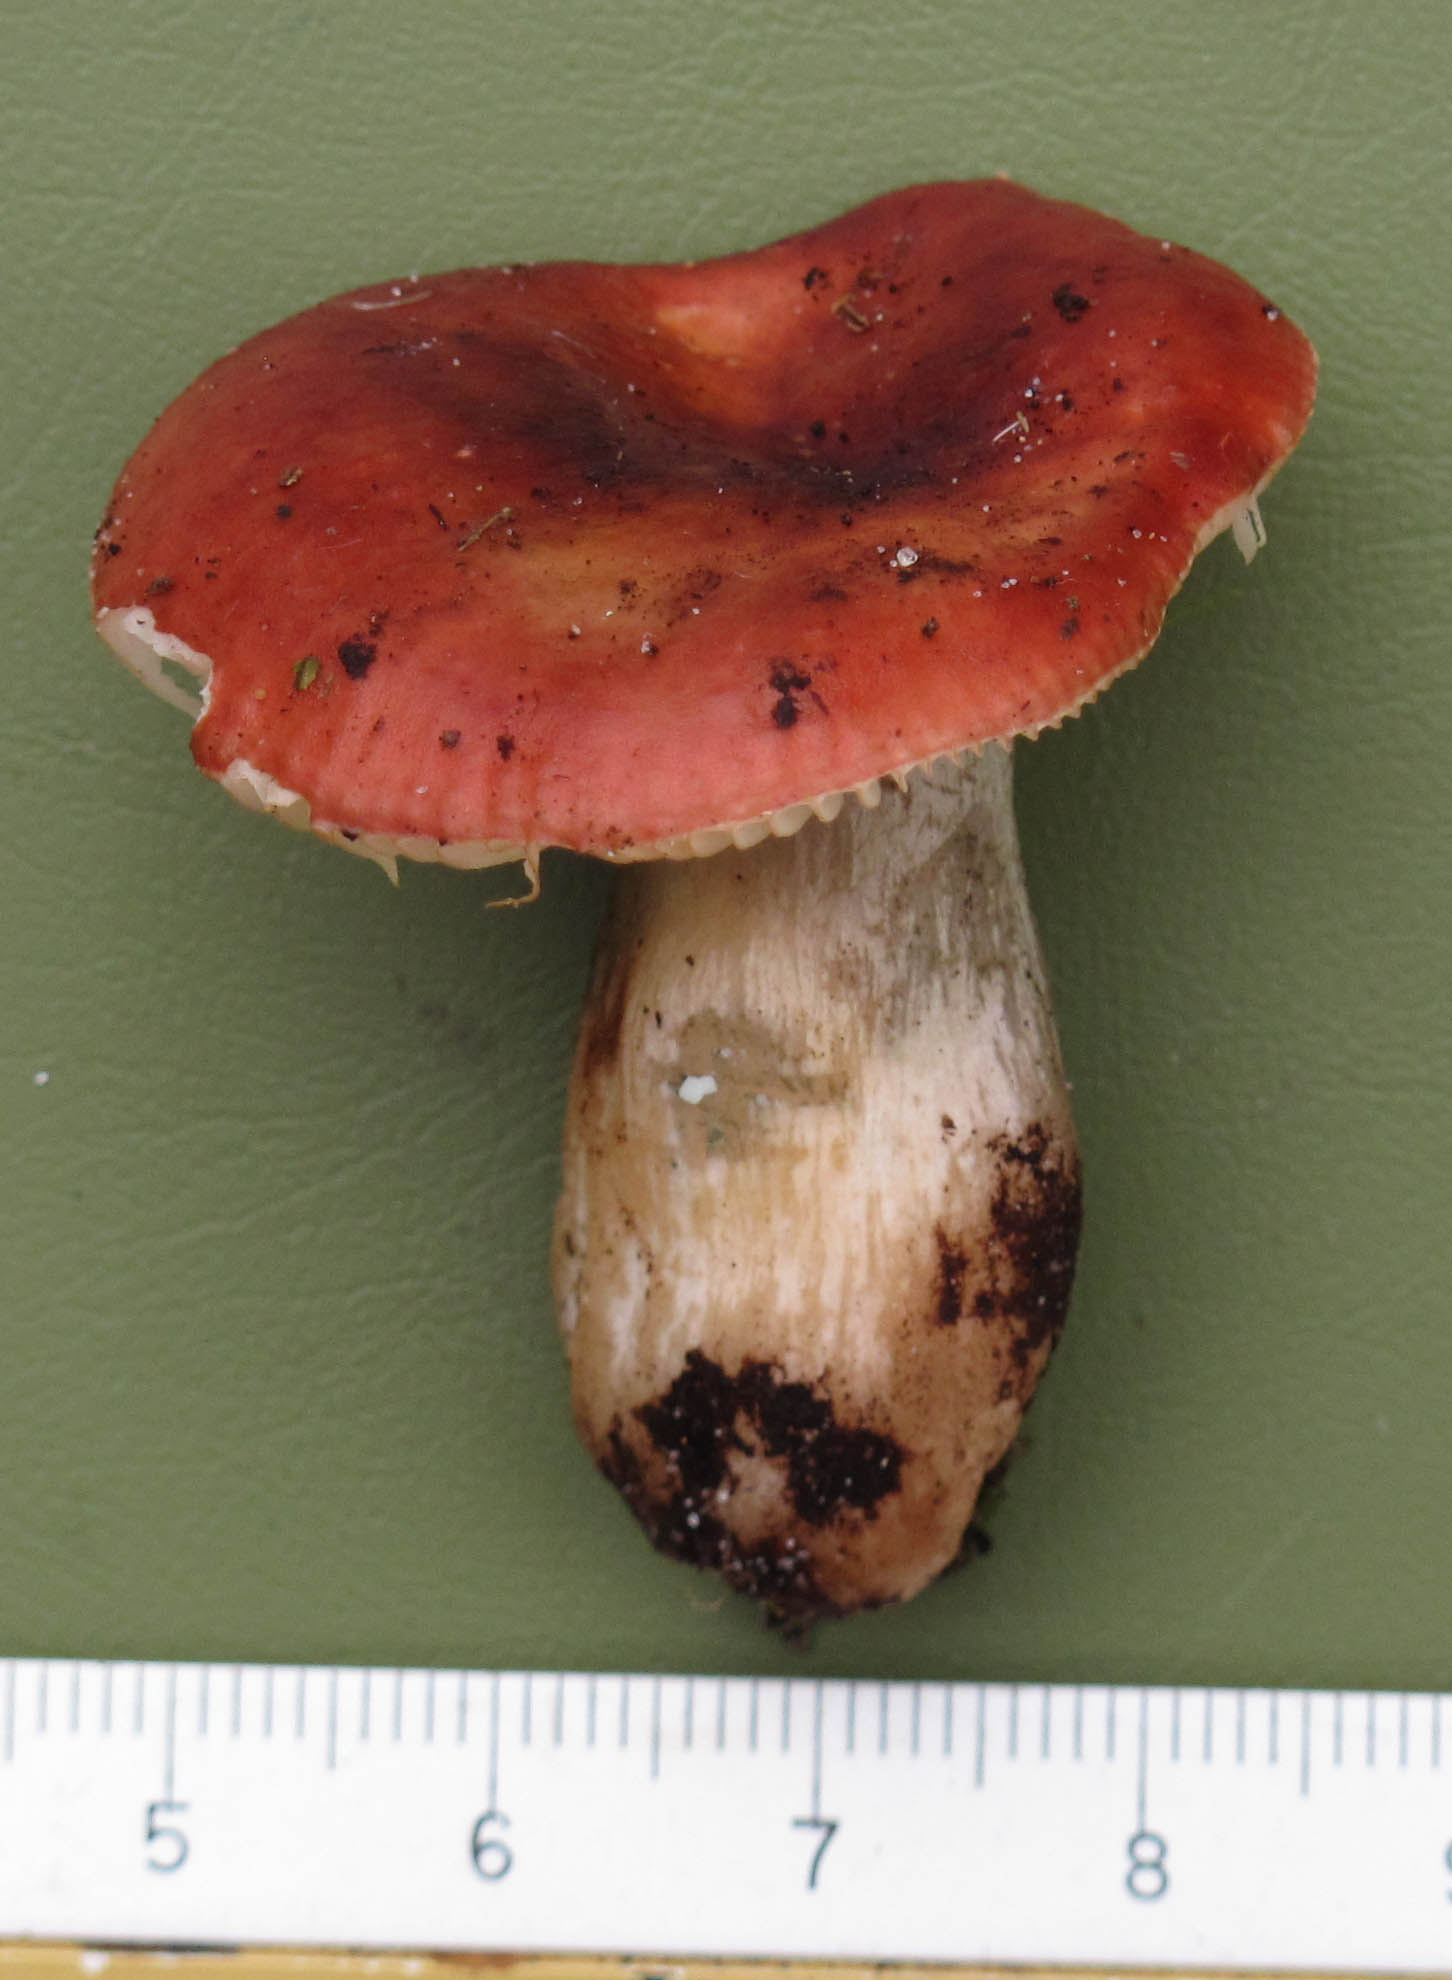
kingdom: Fungi
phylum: Basidiomycota
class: Agaricomycetes
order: Russulales
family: Russulaceae
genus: Russula
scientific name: Russula subrubens
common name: pile-skørhat
